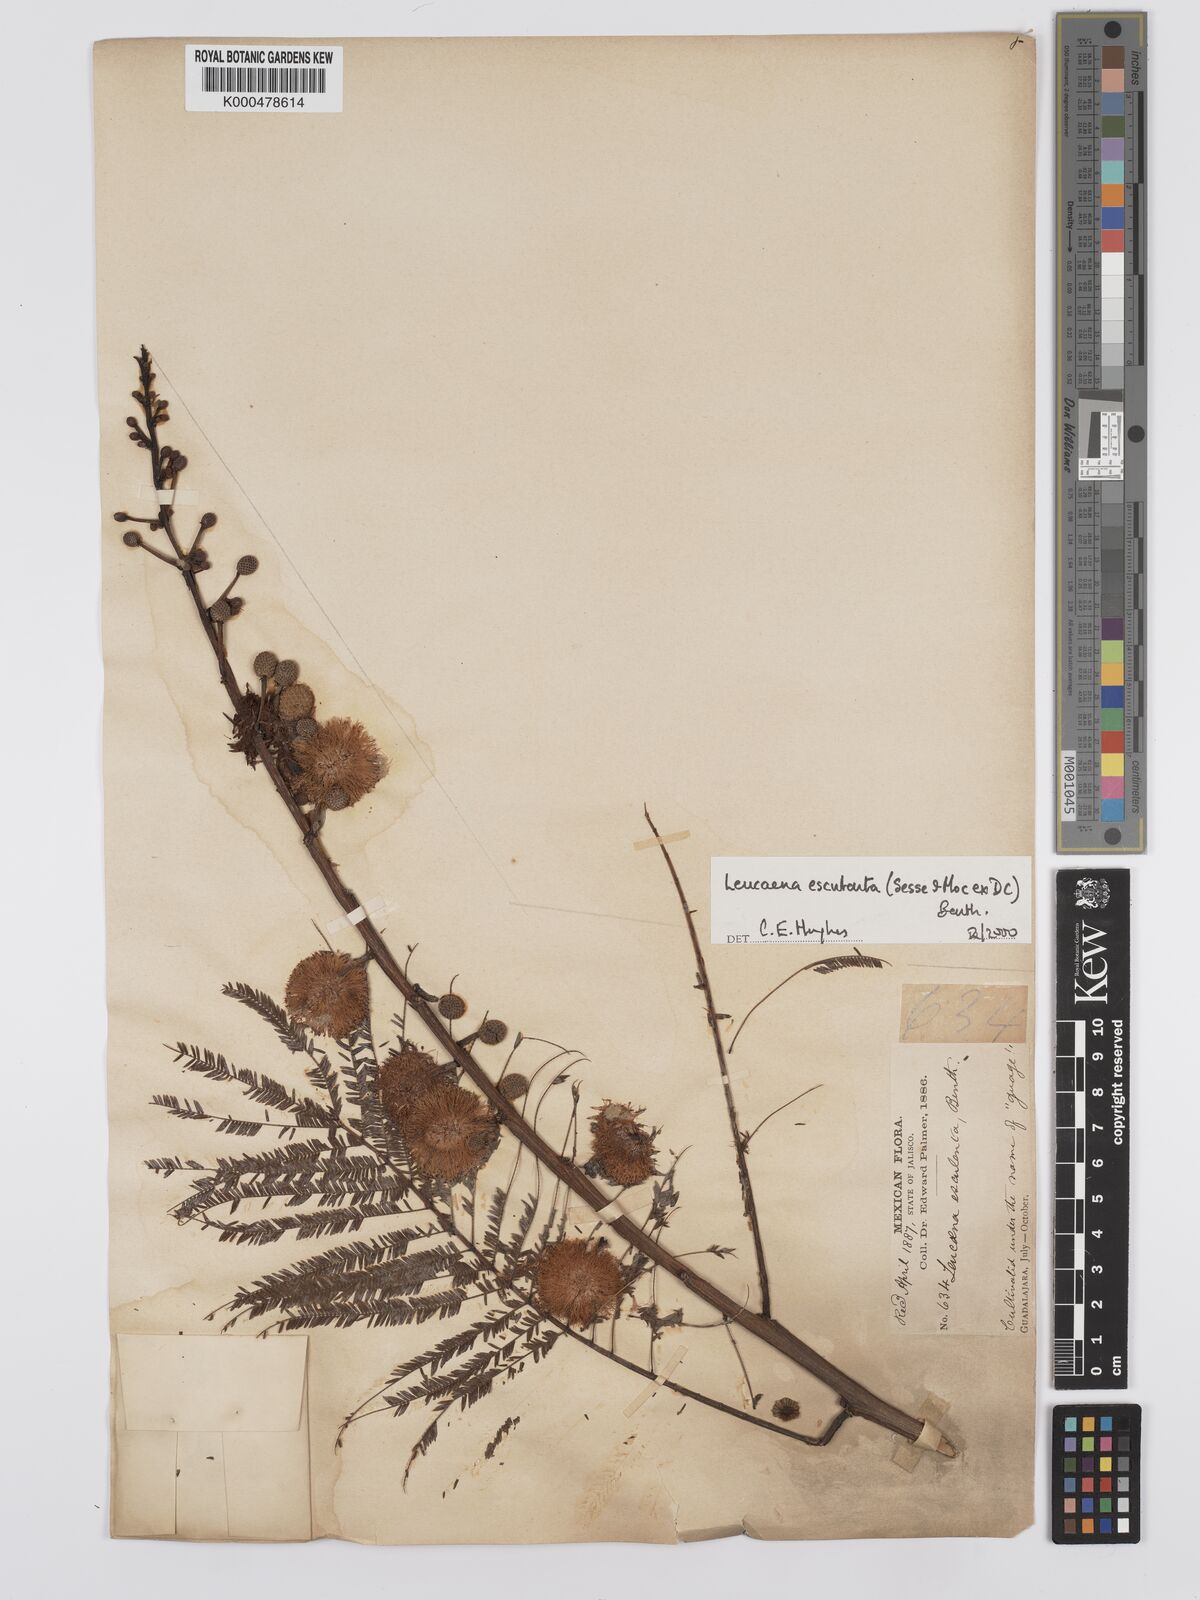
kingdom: Plantae
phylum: Tracheophyta
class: Magnoliopsida
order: Fabales
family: Fabaceae
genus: Leucaena
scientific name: Leucaena esculenta
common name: Guaje
